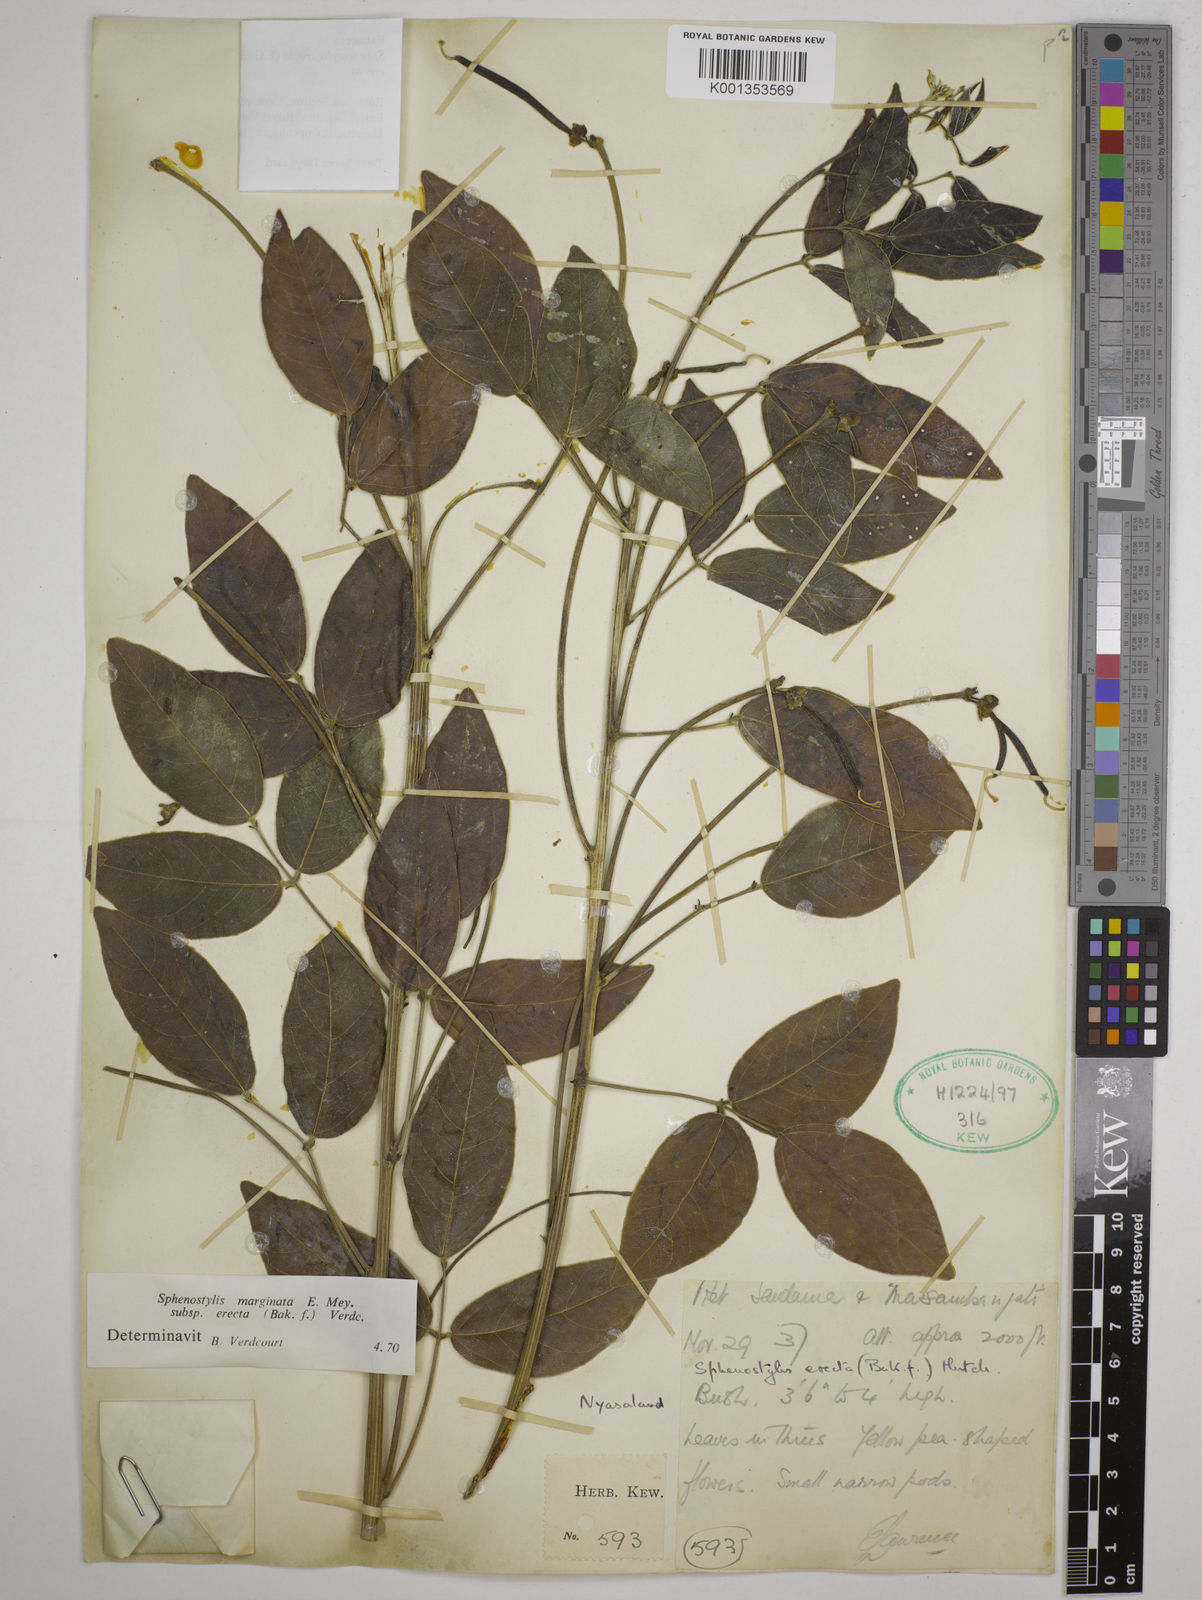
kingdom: Plantae
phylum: Tracheophyta
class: Magnoliopsida
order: Fabales
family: Fabaceae
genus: Sphenostylis
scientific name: Sphenostylis erecta
